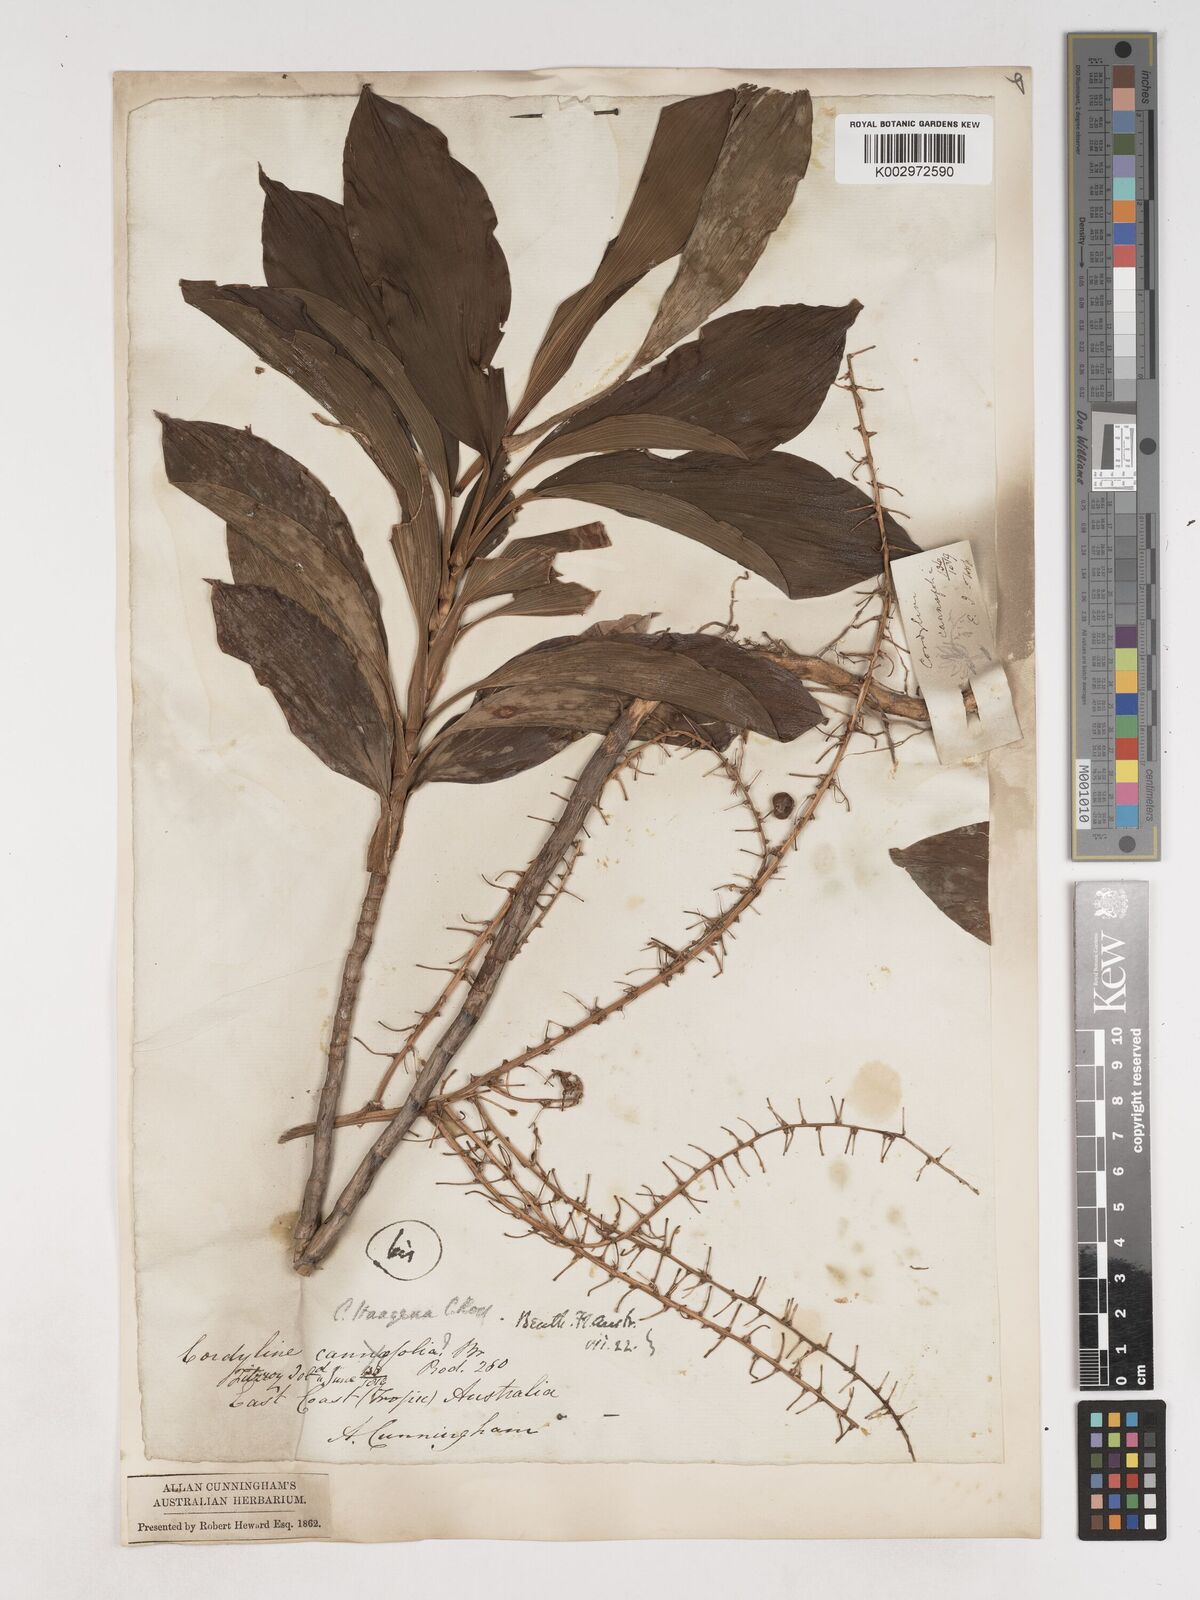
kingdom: Plantae
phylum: Tracheophyta
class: Liliopsida
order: Asparagales
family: Asparagaceae
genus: Cordyline
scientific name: Cordyline murchisoniae
